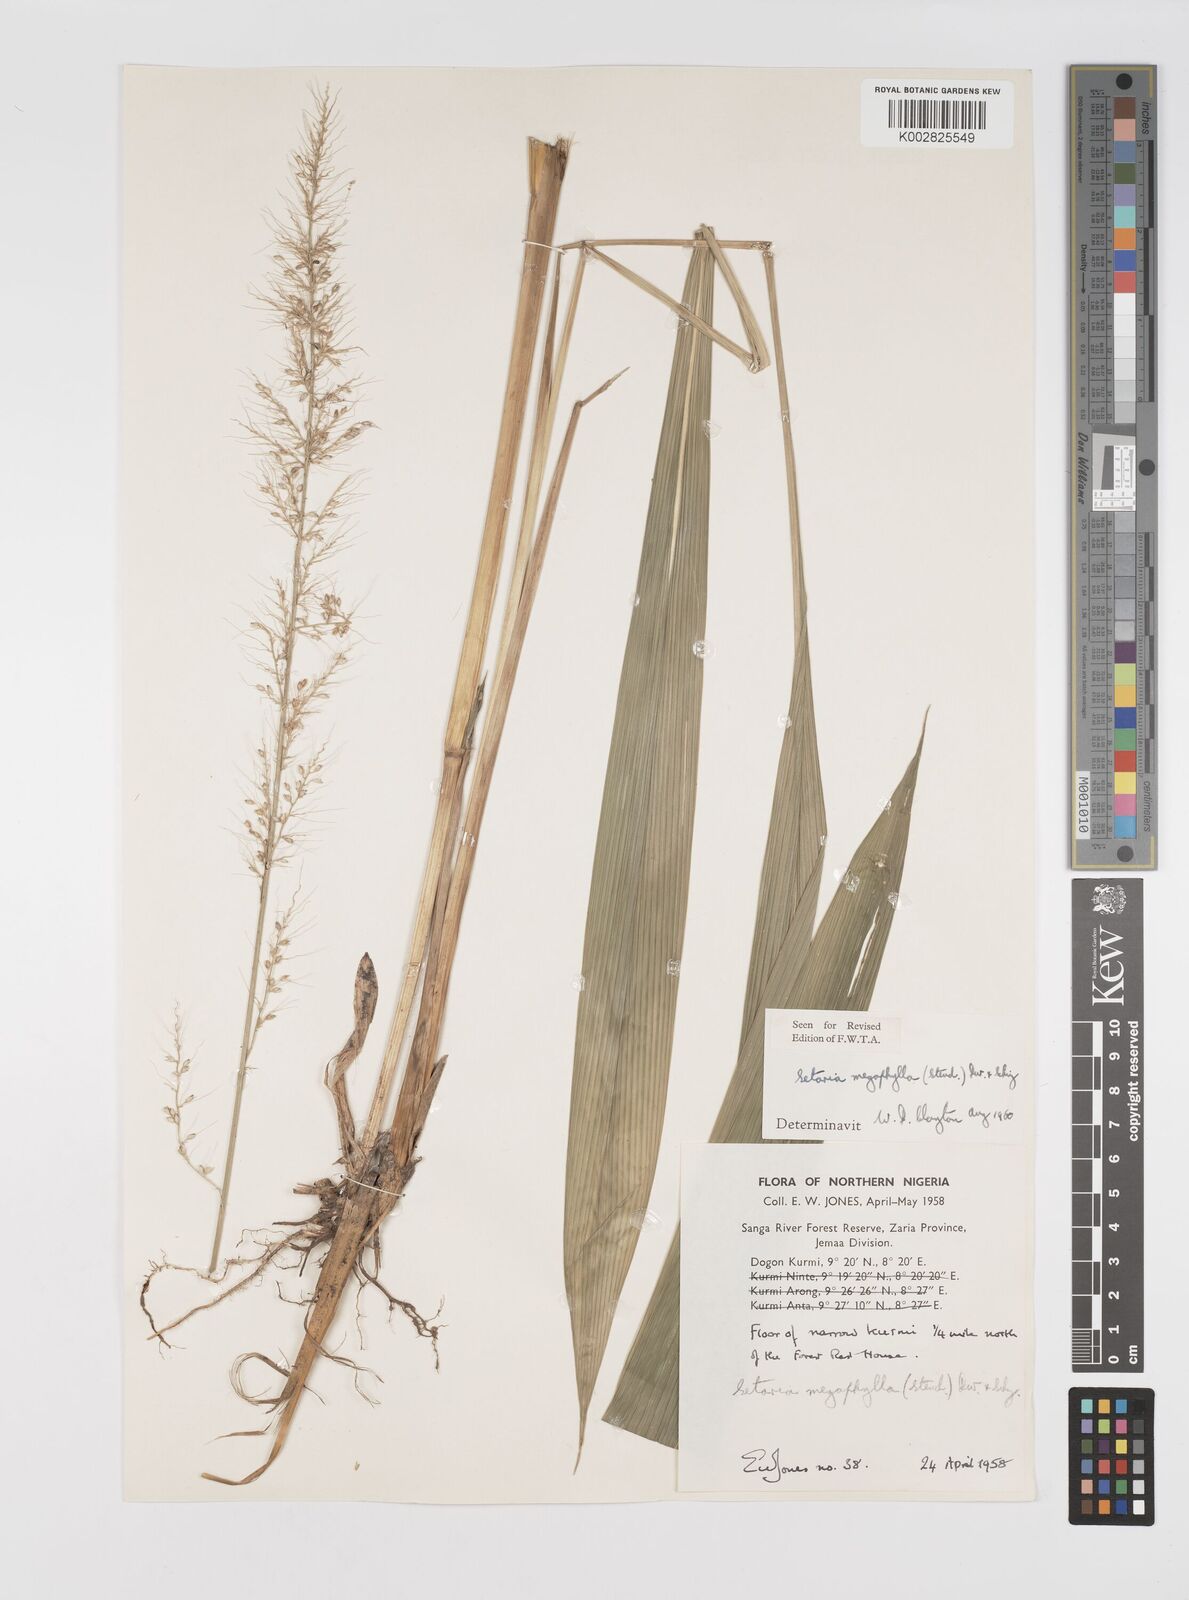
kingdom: Plantae
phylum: Tracheophyta
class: Liliopsida
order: Poales
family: Poaceae
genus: Setaria
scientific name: Setaria megaphylla
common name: Bigleaf bristlegrass
